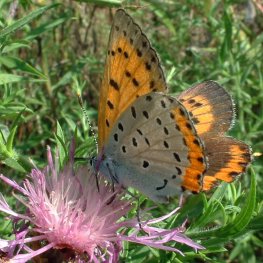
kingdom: Animalia
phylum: Arthropoda
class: Insecta
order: Lepidoptera
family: Sesiidae
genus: Sesia
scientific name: Sesia Lycaena hyllus
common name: Bronze Copper
